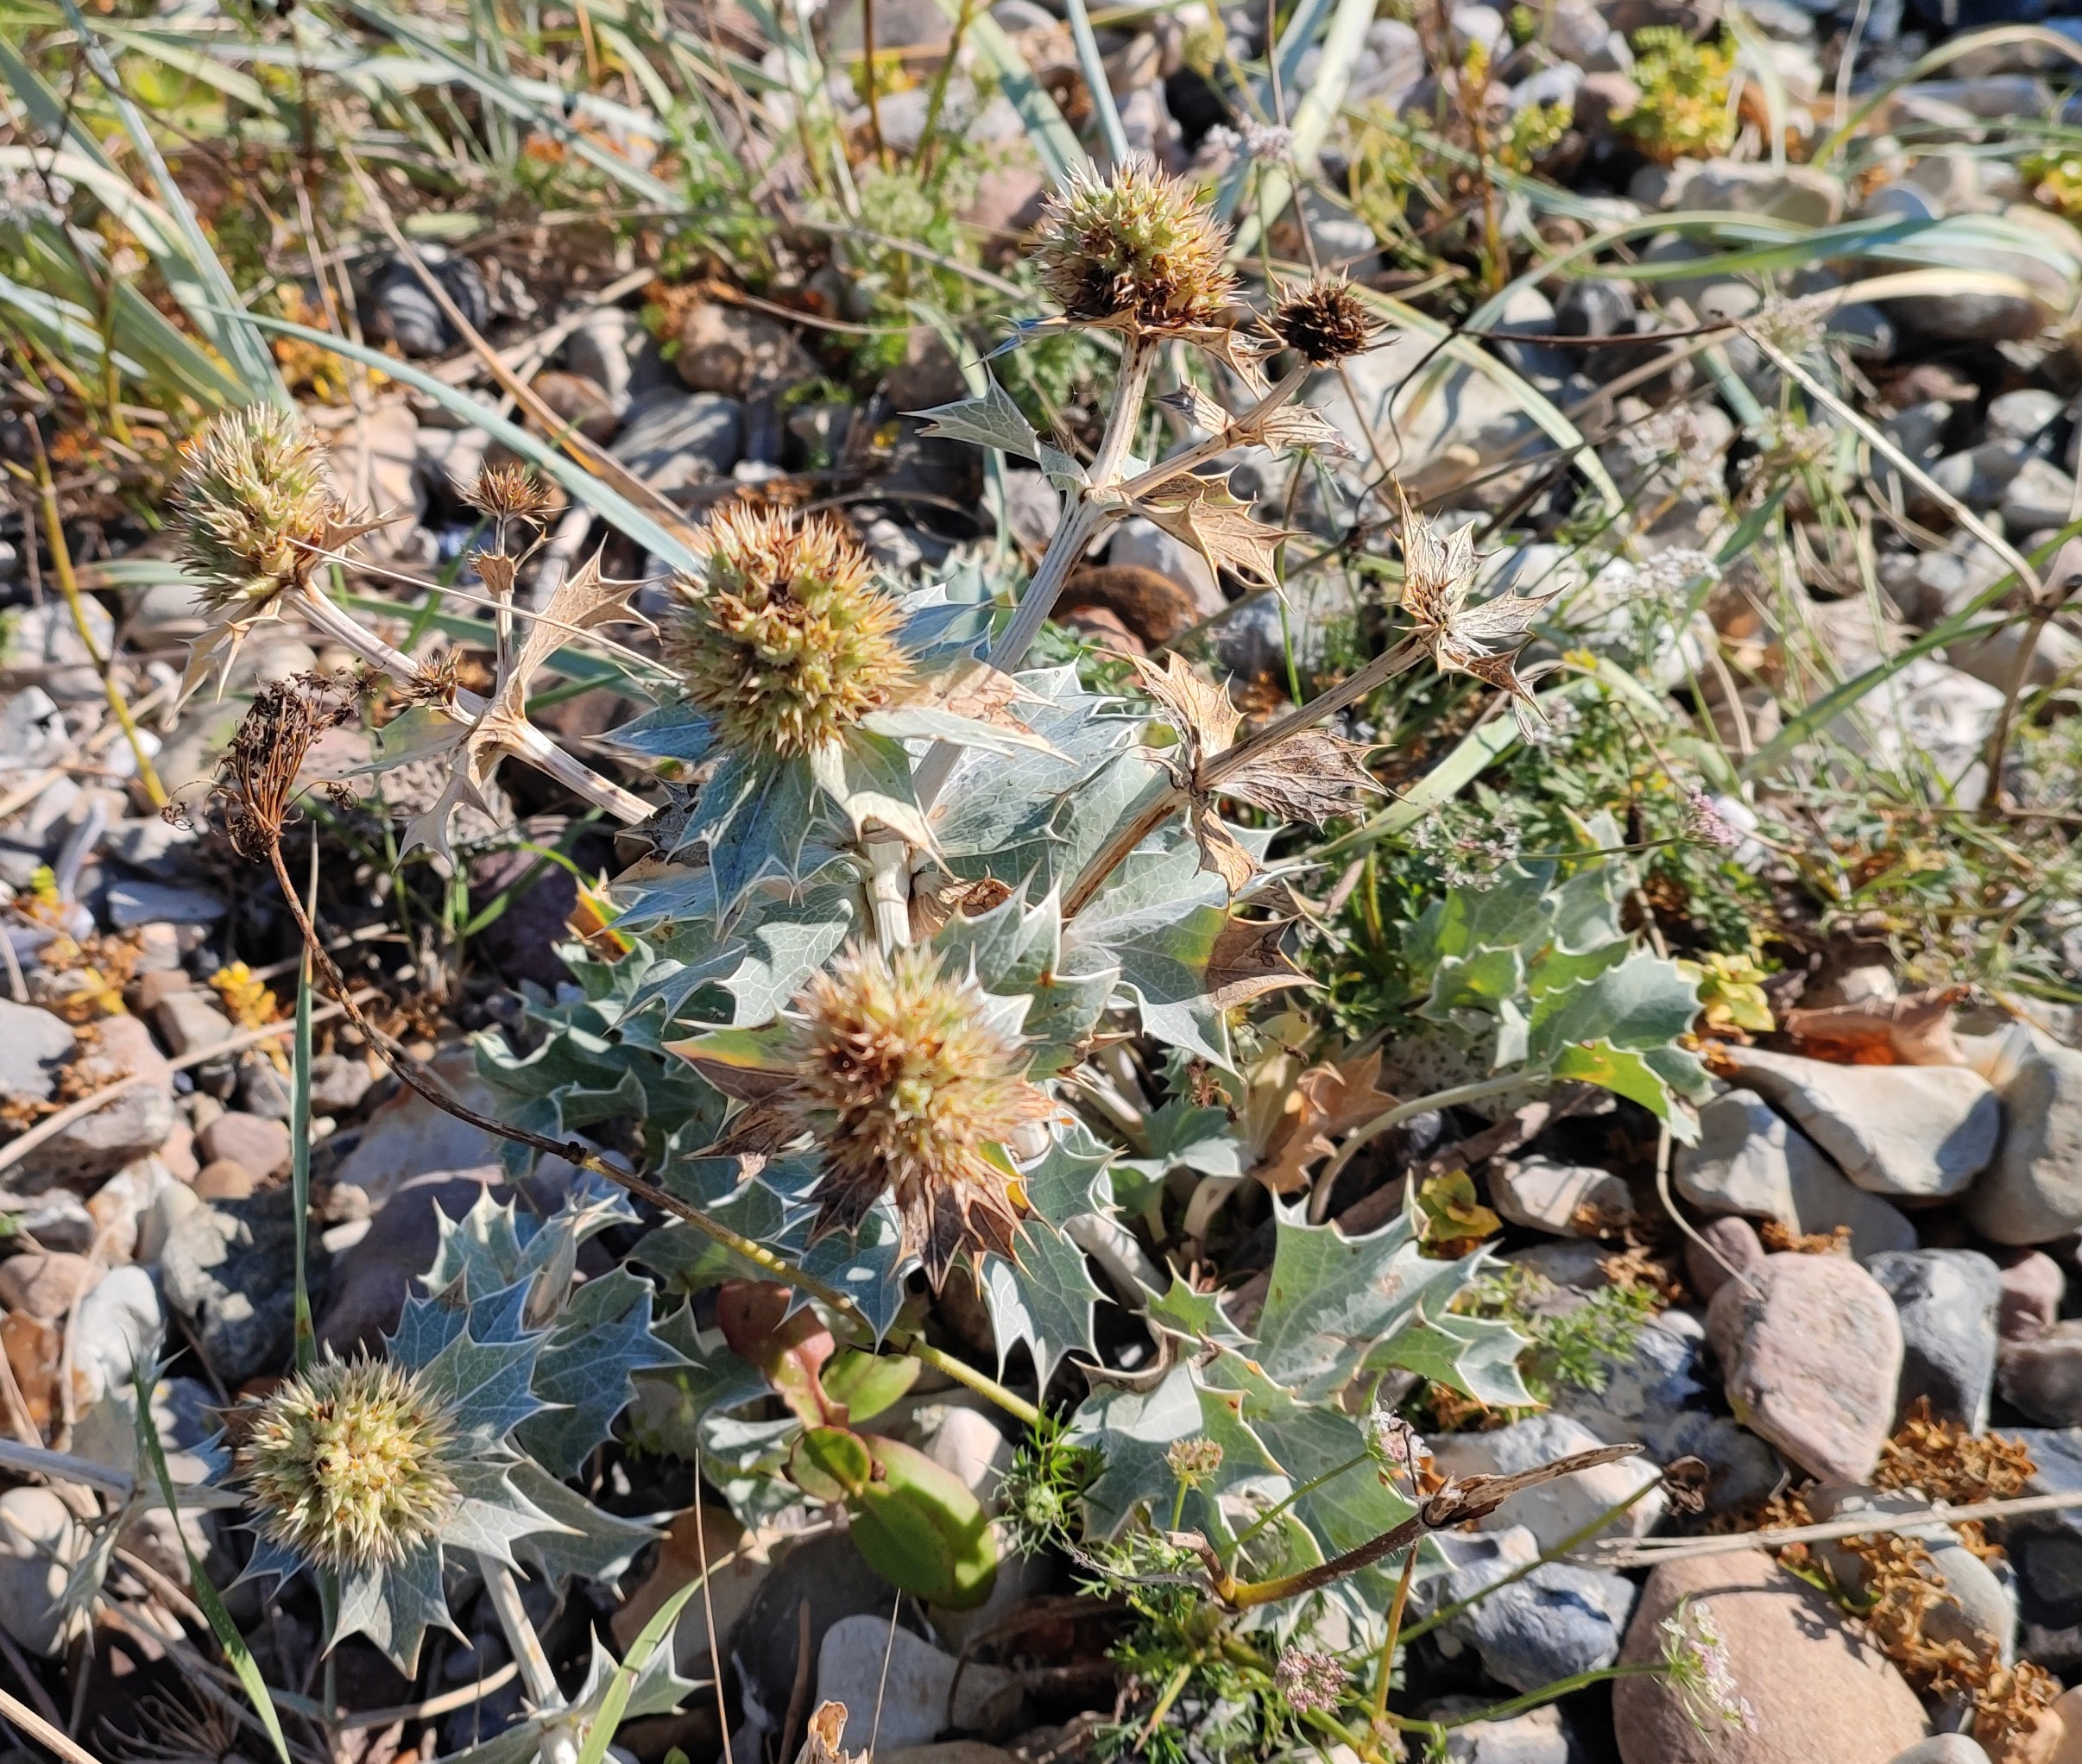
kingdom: Plantae
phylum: Tracheophyta
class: Magnoliopsida
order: Apiales
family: Apiaceae
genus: Eryngium
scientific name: Eryngium maritimum
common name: Strand-mandstro
